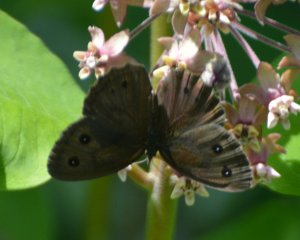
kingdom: Animalia
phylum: Arthropoda
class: Insecta
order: Lepidoptera
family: Nymphalidae
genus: Cercyonis
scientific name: Cercyonis pegala
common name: Common Wood-Nymph
